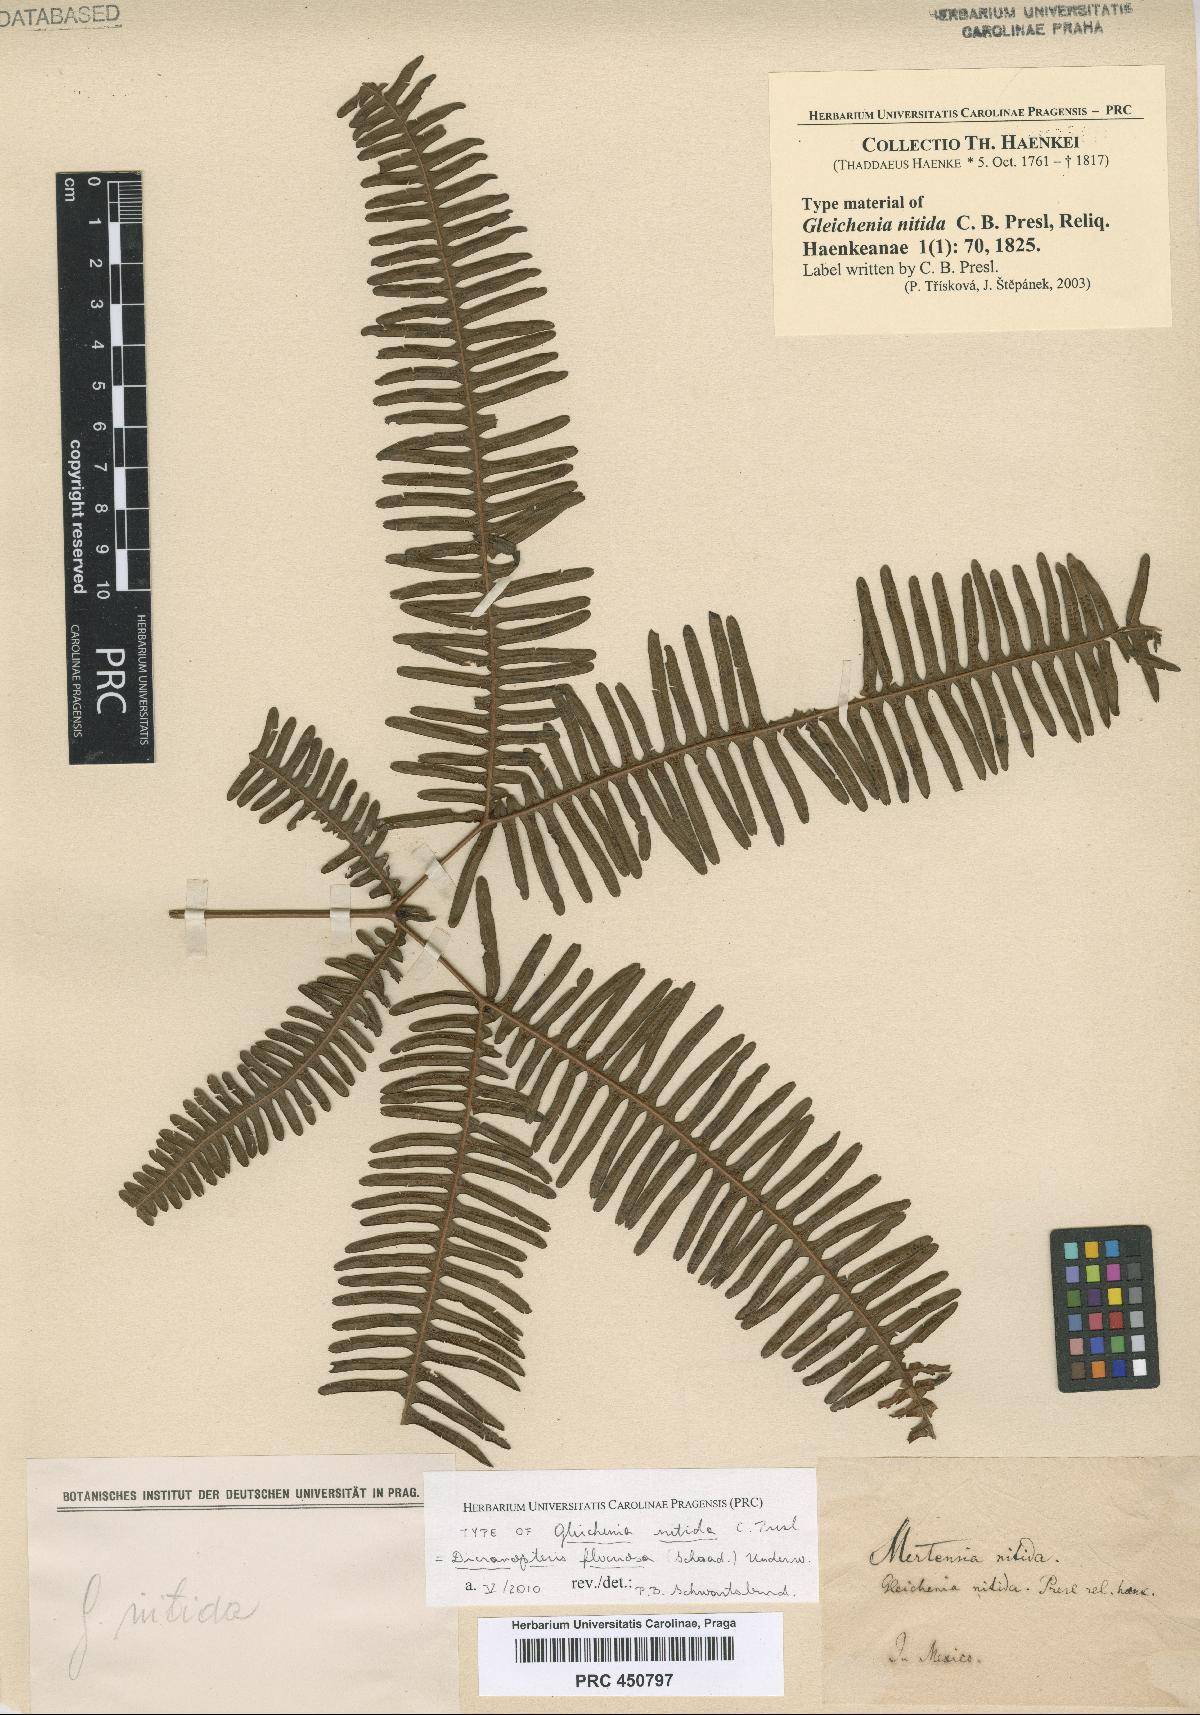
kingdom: Plantae
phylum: Tracheophyta
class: Polypodiopsida
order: Gleicheniales
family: Gleicheniaceae
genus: Gleichenella
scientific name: Gleichenella pectinata
